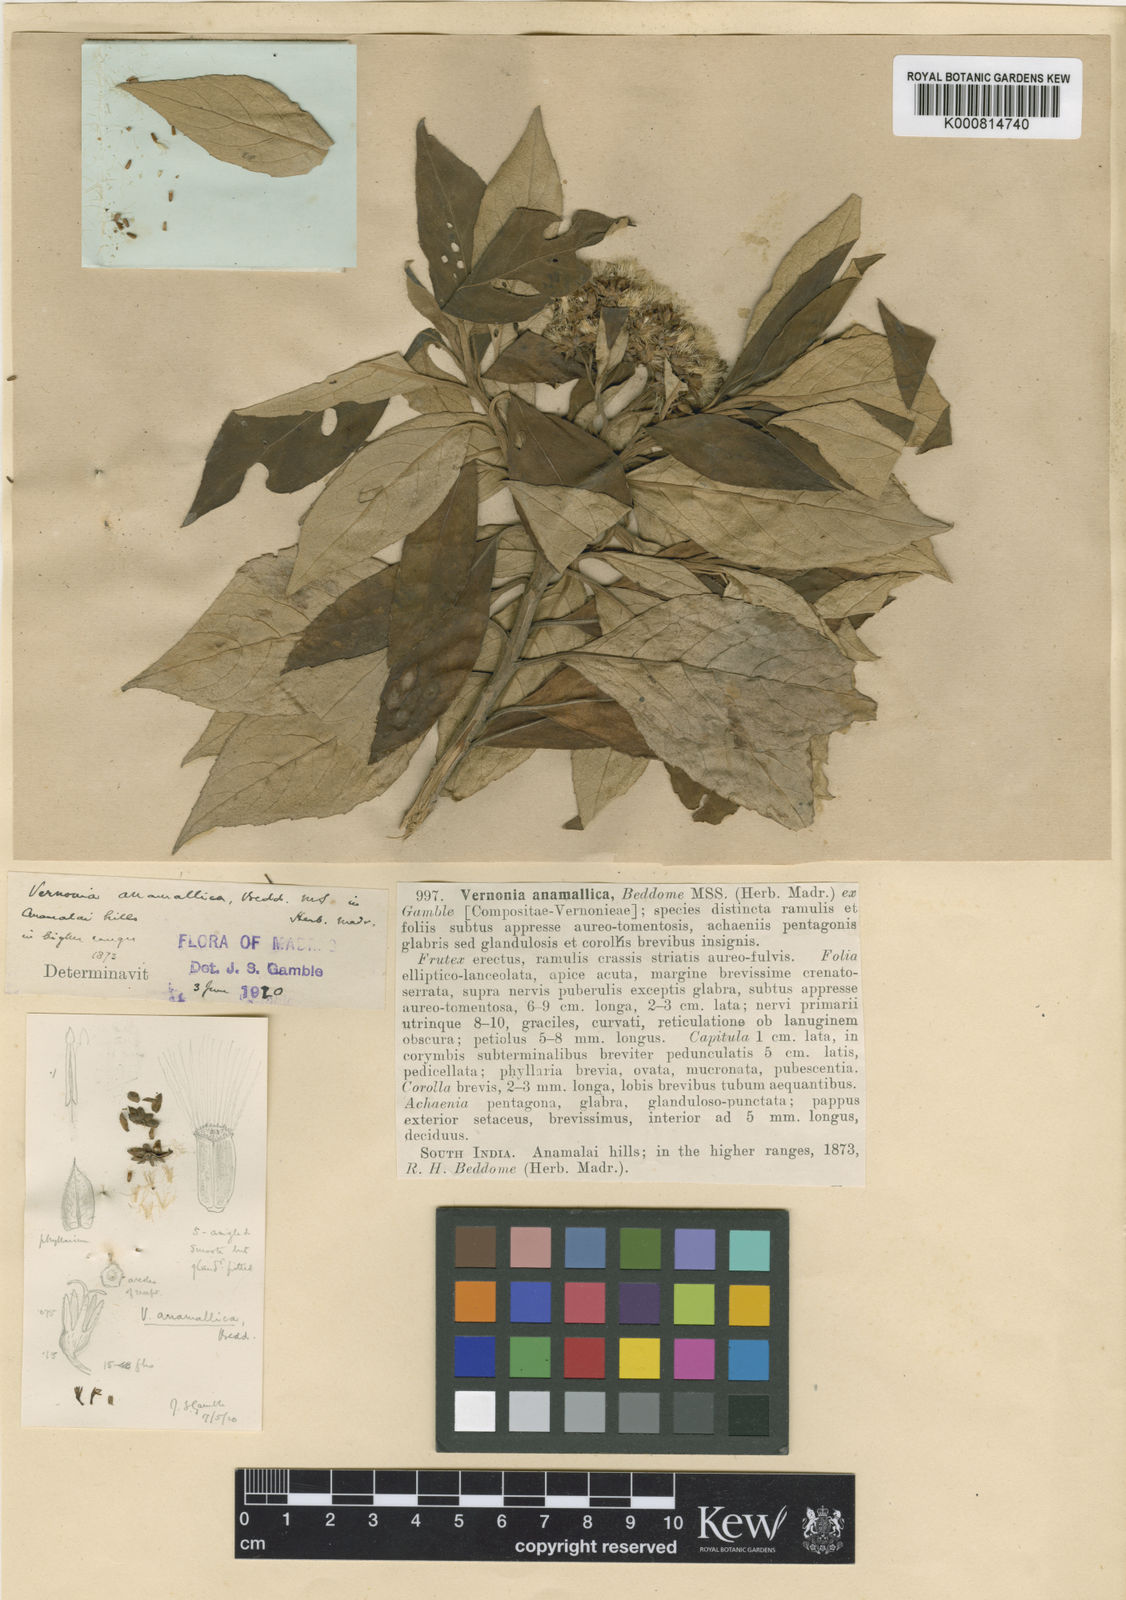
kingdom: Plantae
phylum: Tracheophyta
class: Magnoliopsida
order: Asterales
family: Asteraceae
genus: Uniyala
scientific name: Uniyala anamallica
